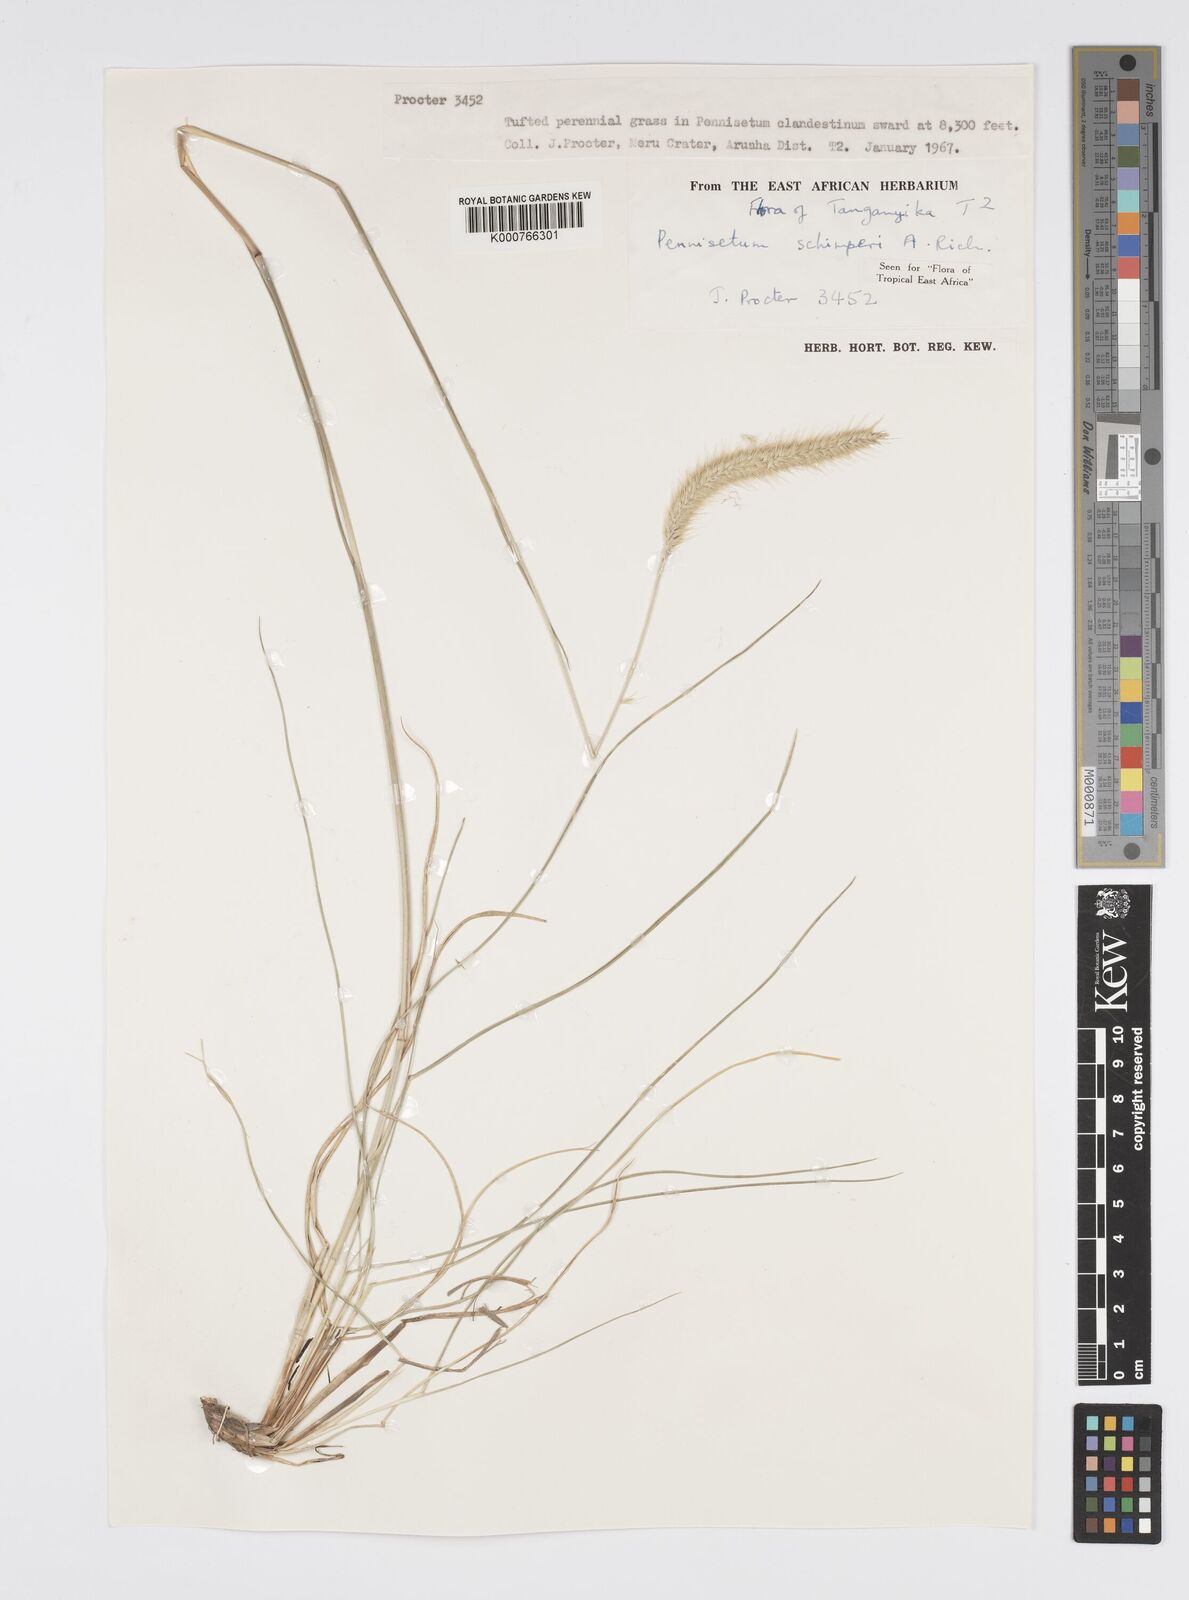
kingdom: Plantae
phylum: Tracheophyta
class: Liliopsida
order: Poales
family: Poaceae
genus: Cenchrus
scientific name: Cenchrus sphacelatus
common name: Bulgras
